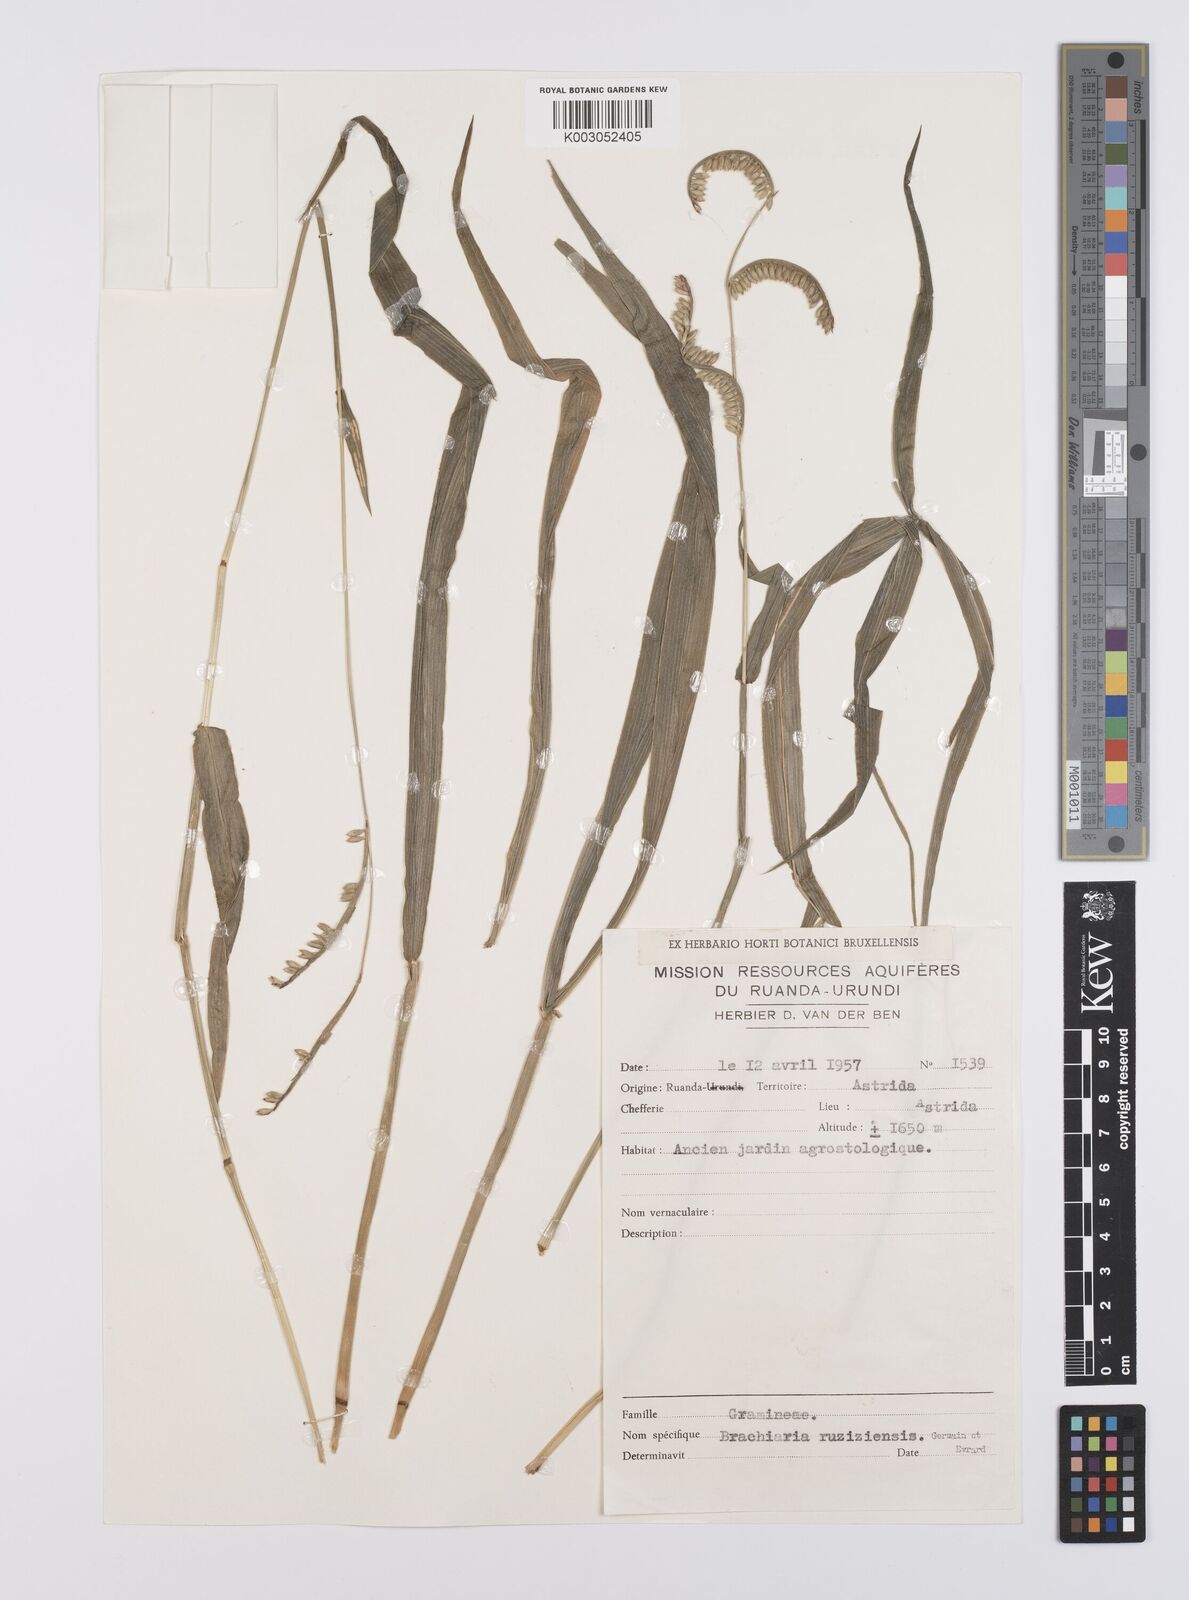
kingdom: Plantae
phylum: Tracheophyta
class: Liliopsida
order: Poales
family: Poaceae
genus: Urochloa
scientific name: Urochloa eminii
